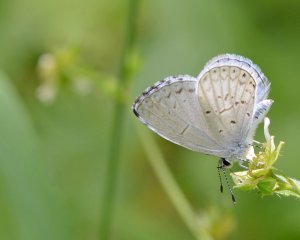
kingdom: Animalia
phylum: Arthropoda
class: Insecta
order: Lepidoptera
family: Lycaenidae
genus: Cyaniris
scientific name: Cyaniris neglecta
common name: Summer Azure
